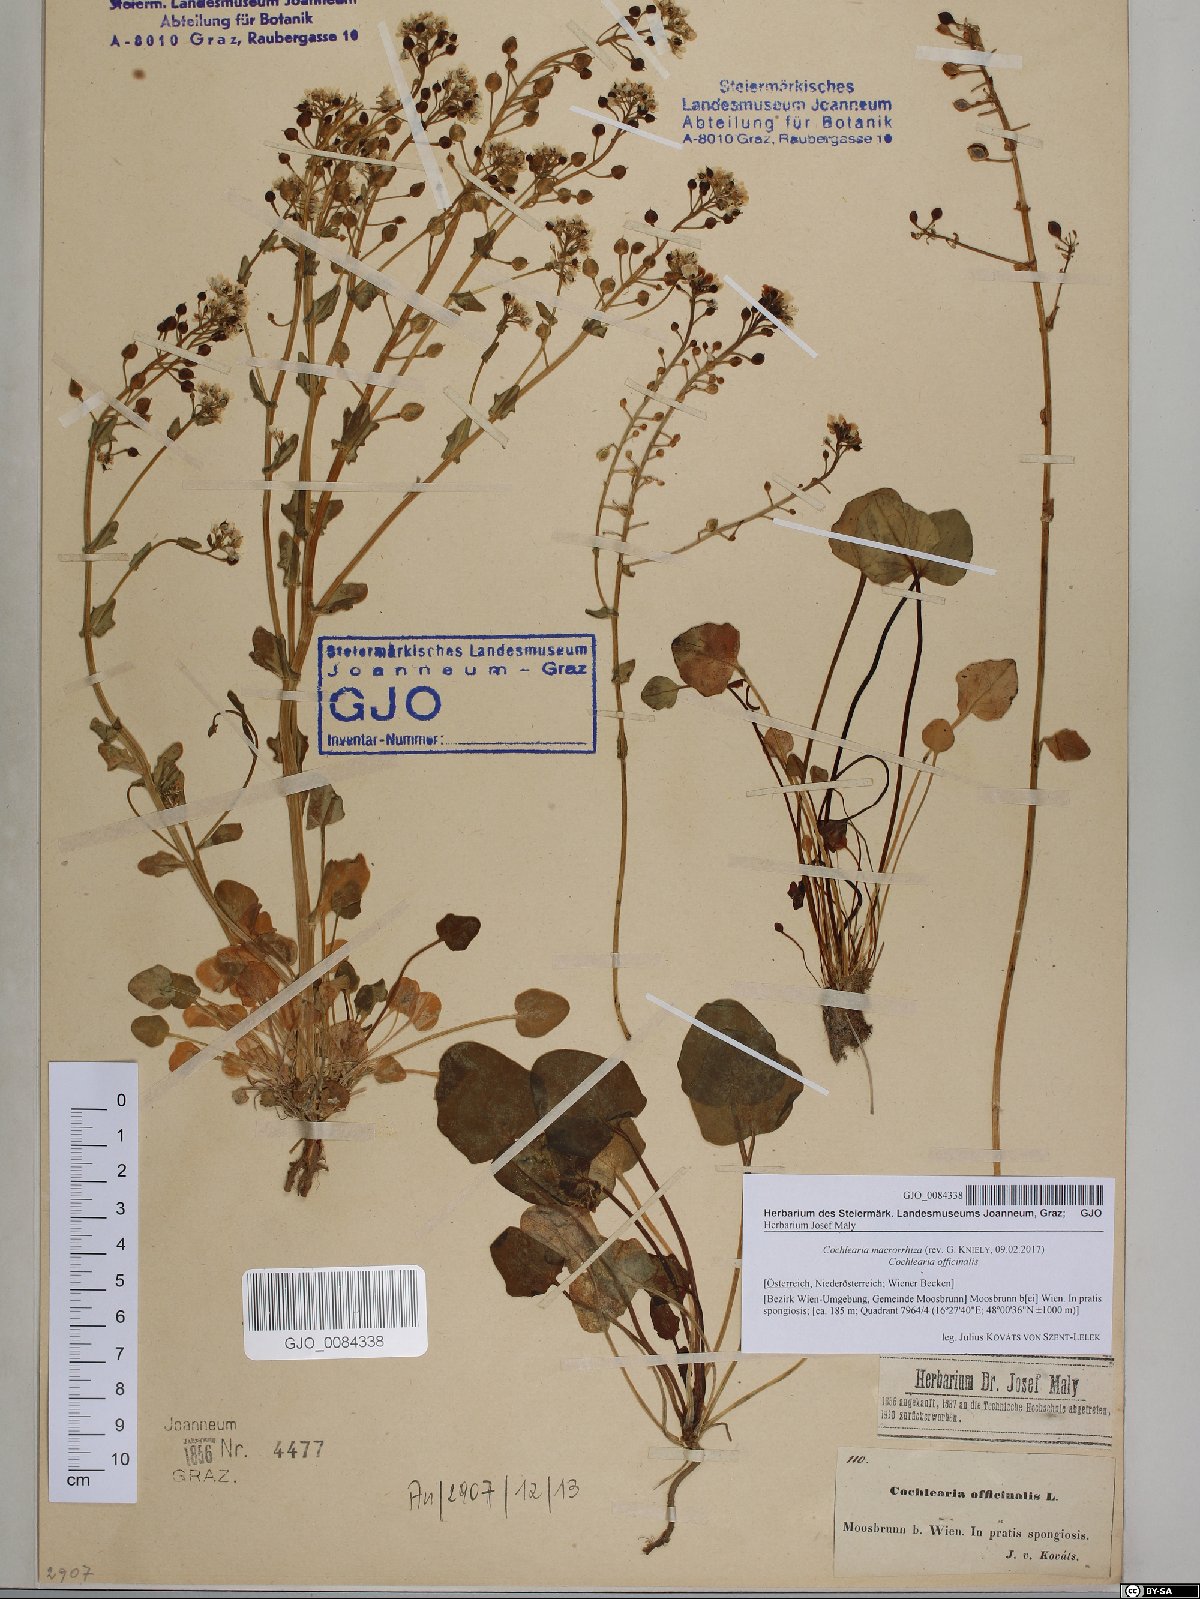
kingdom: Plantae
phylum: Tracheophyta
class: Magnoliopsida
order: Brassicales
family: Brassicaceae
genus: Cochlearia
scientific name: Cochlearia pyrenaica
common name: Upland scurvy-grass
